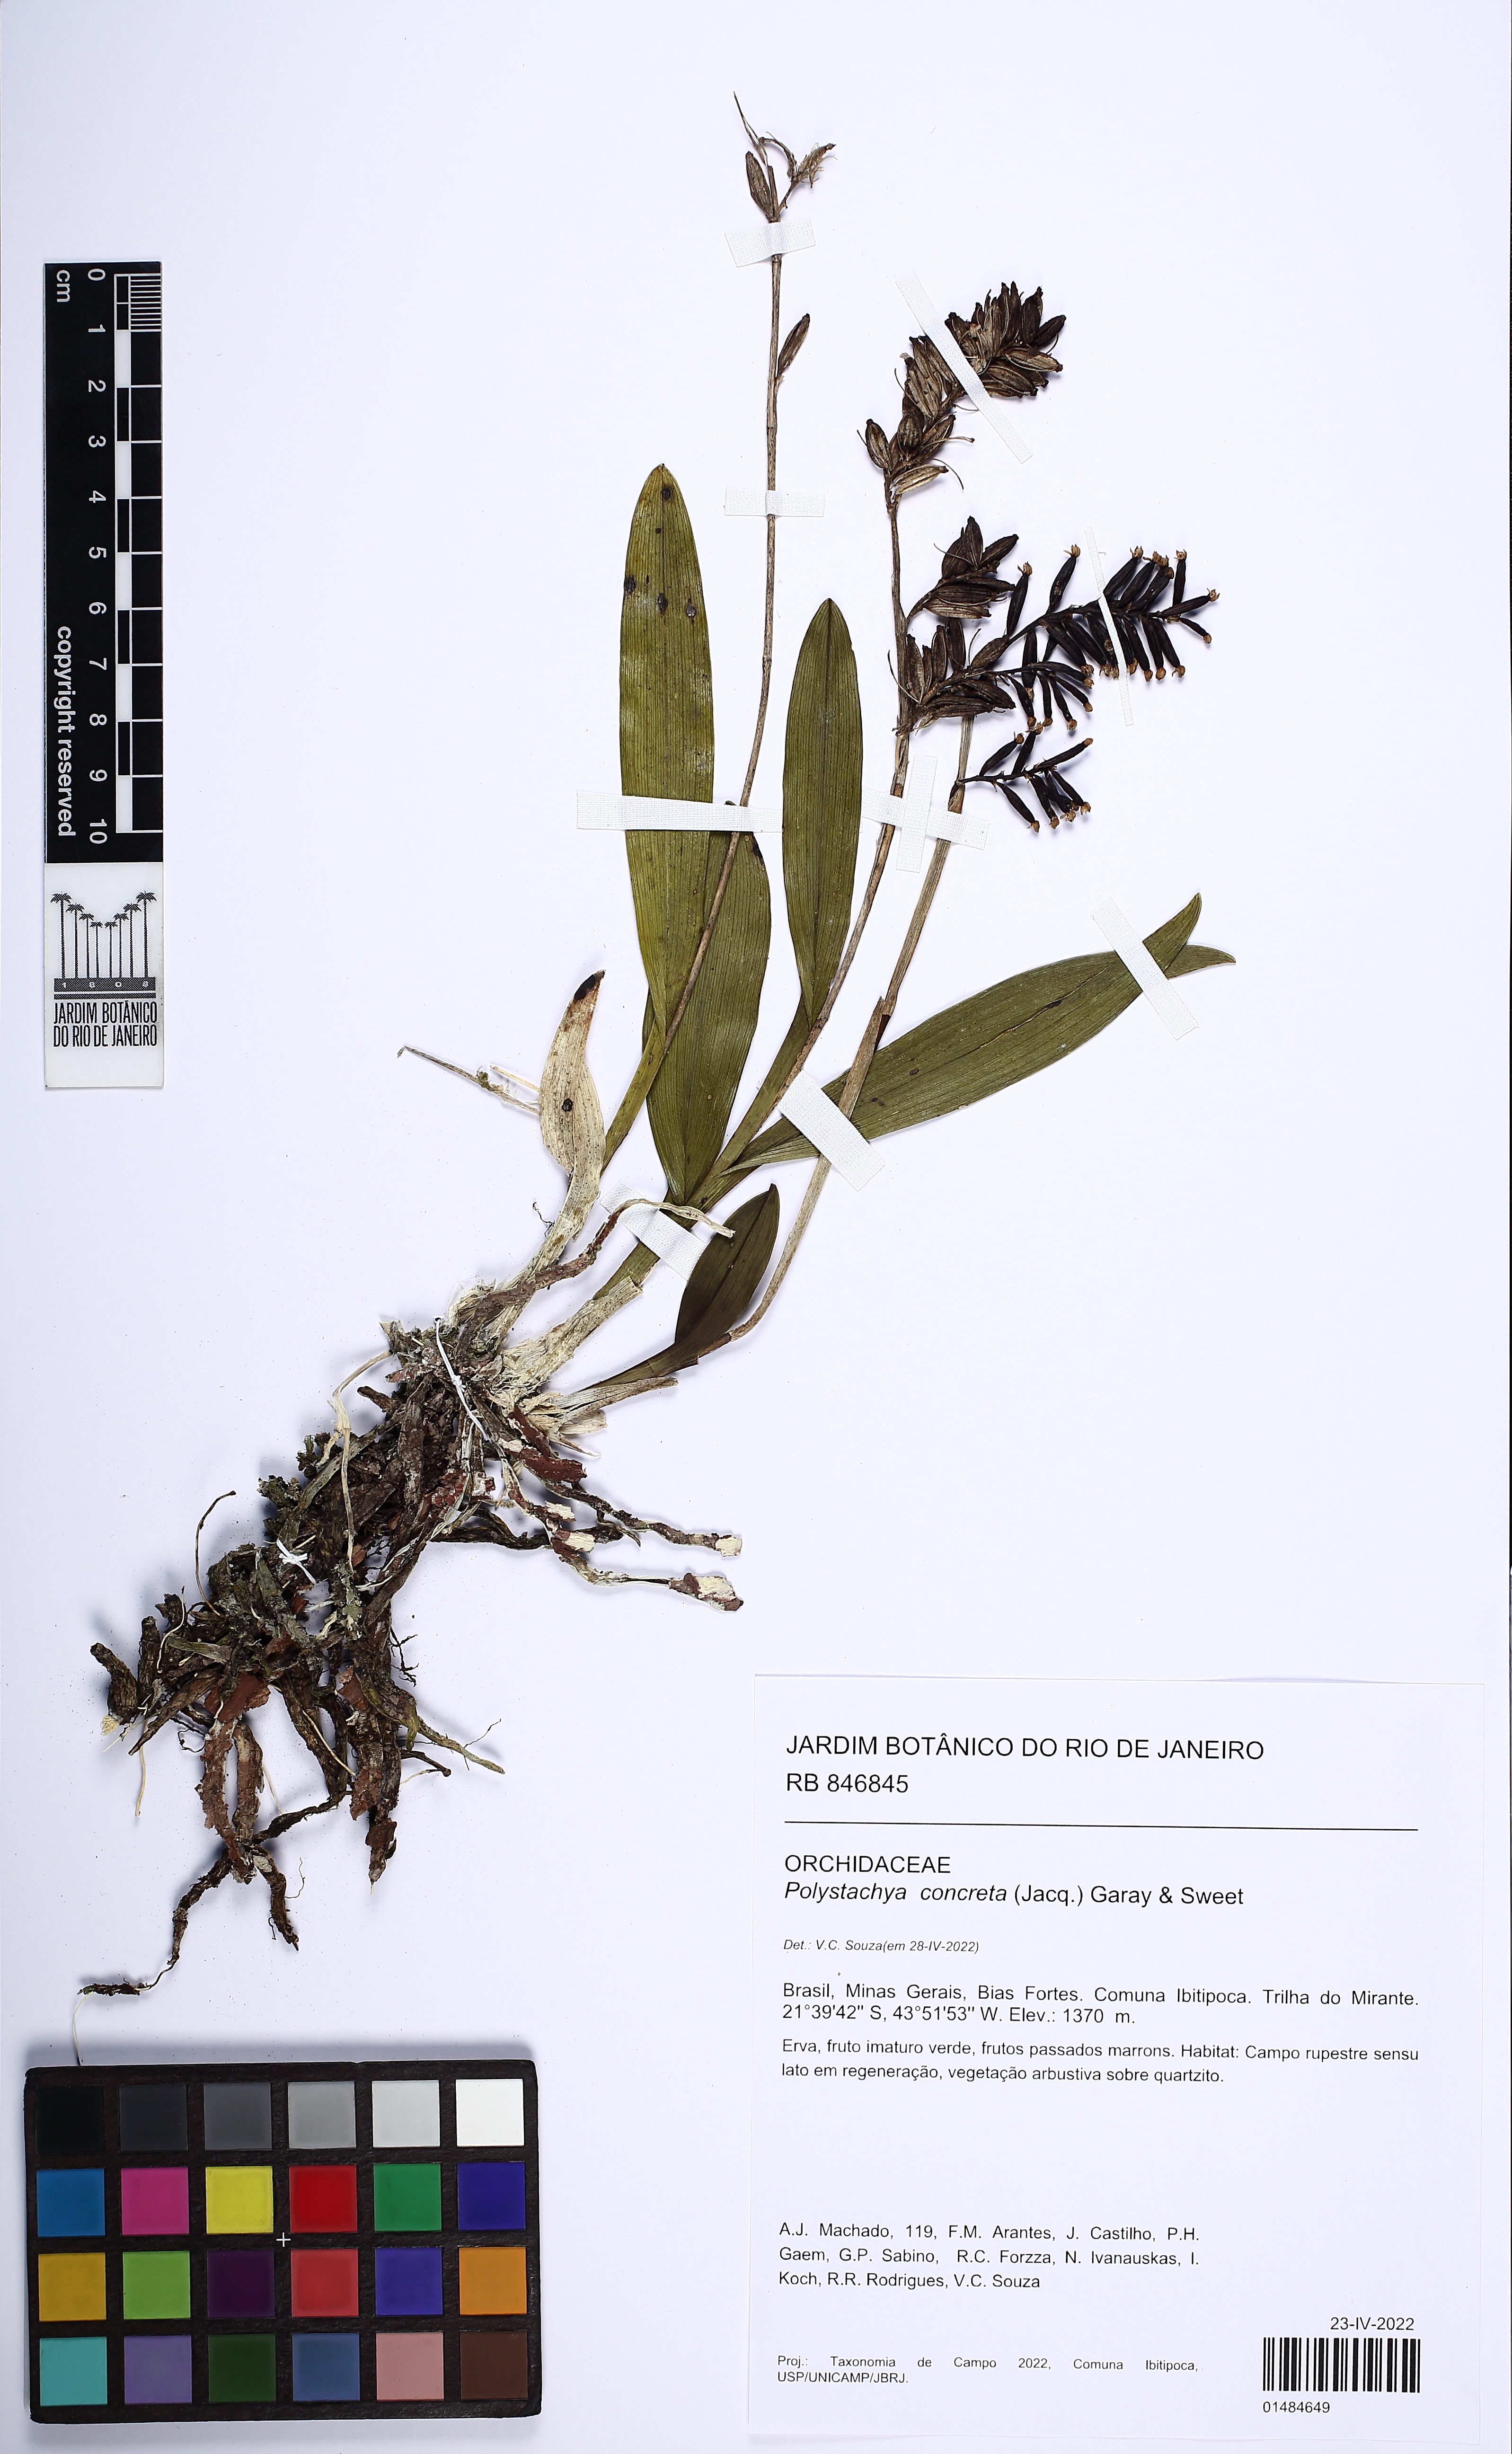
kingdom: Plantae
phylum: Tracheophyta
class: Liliopsida
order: Asparagales
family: Orchidaceae
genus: Polystachya
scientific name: Polystachya concreta
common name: Greater yellowspike orchid
